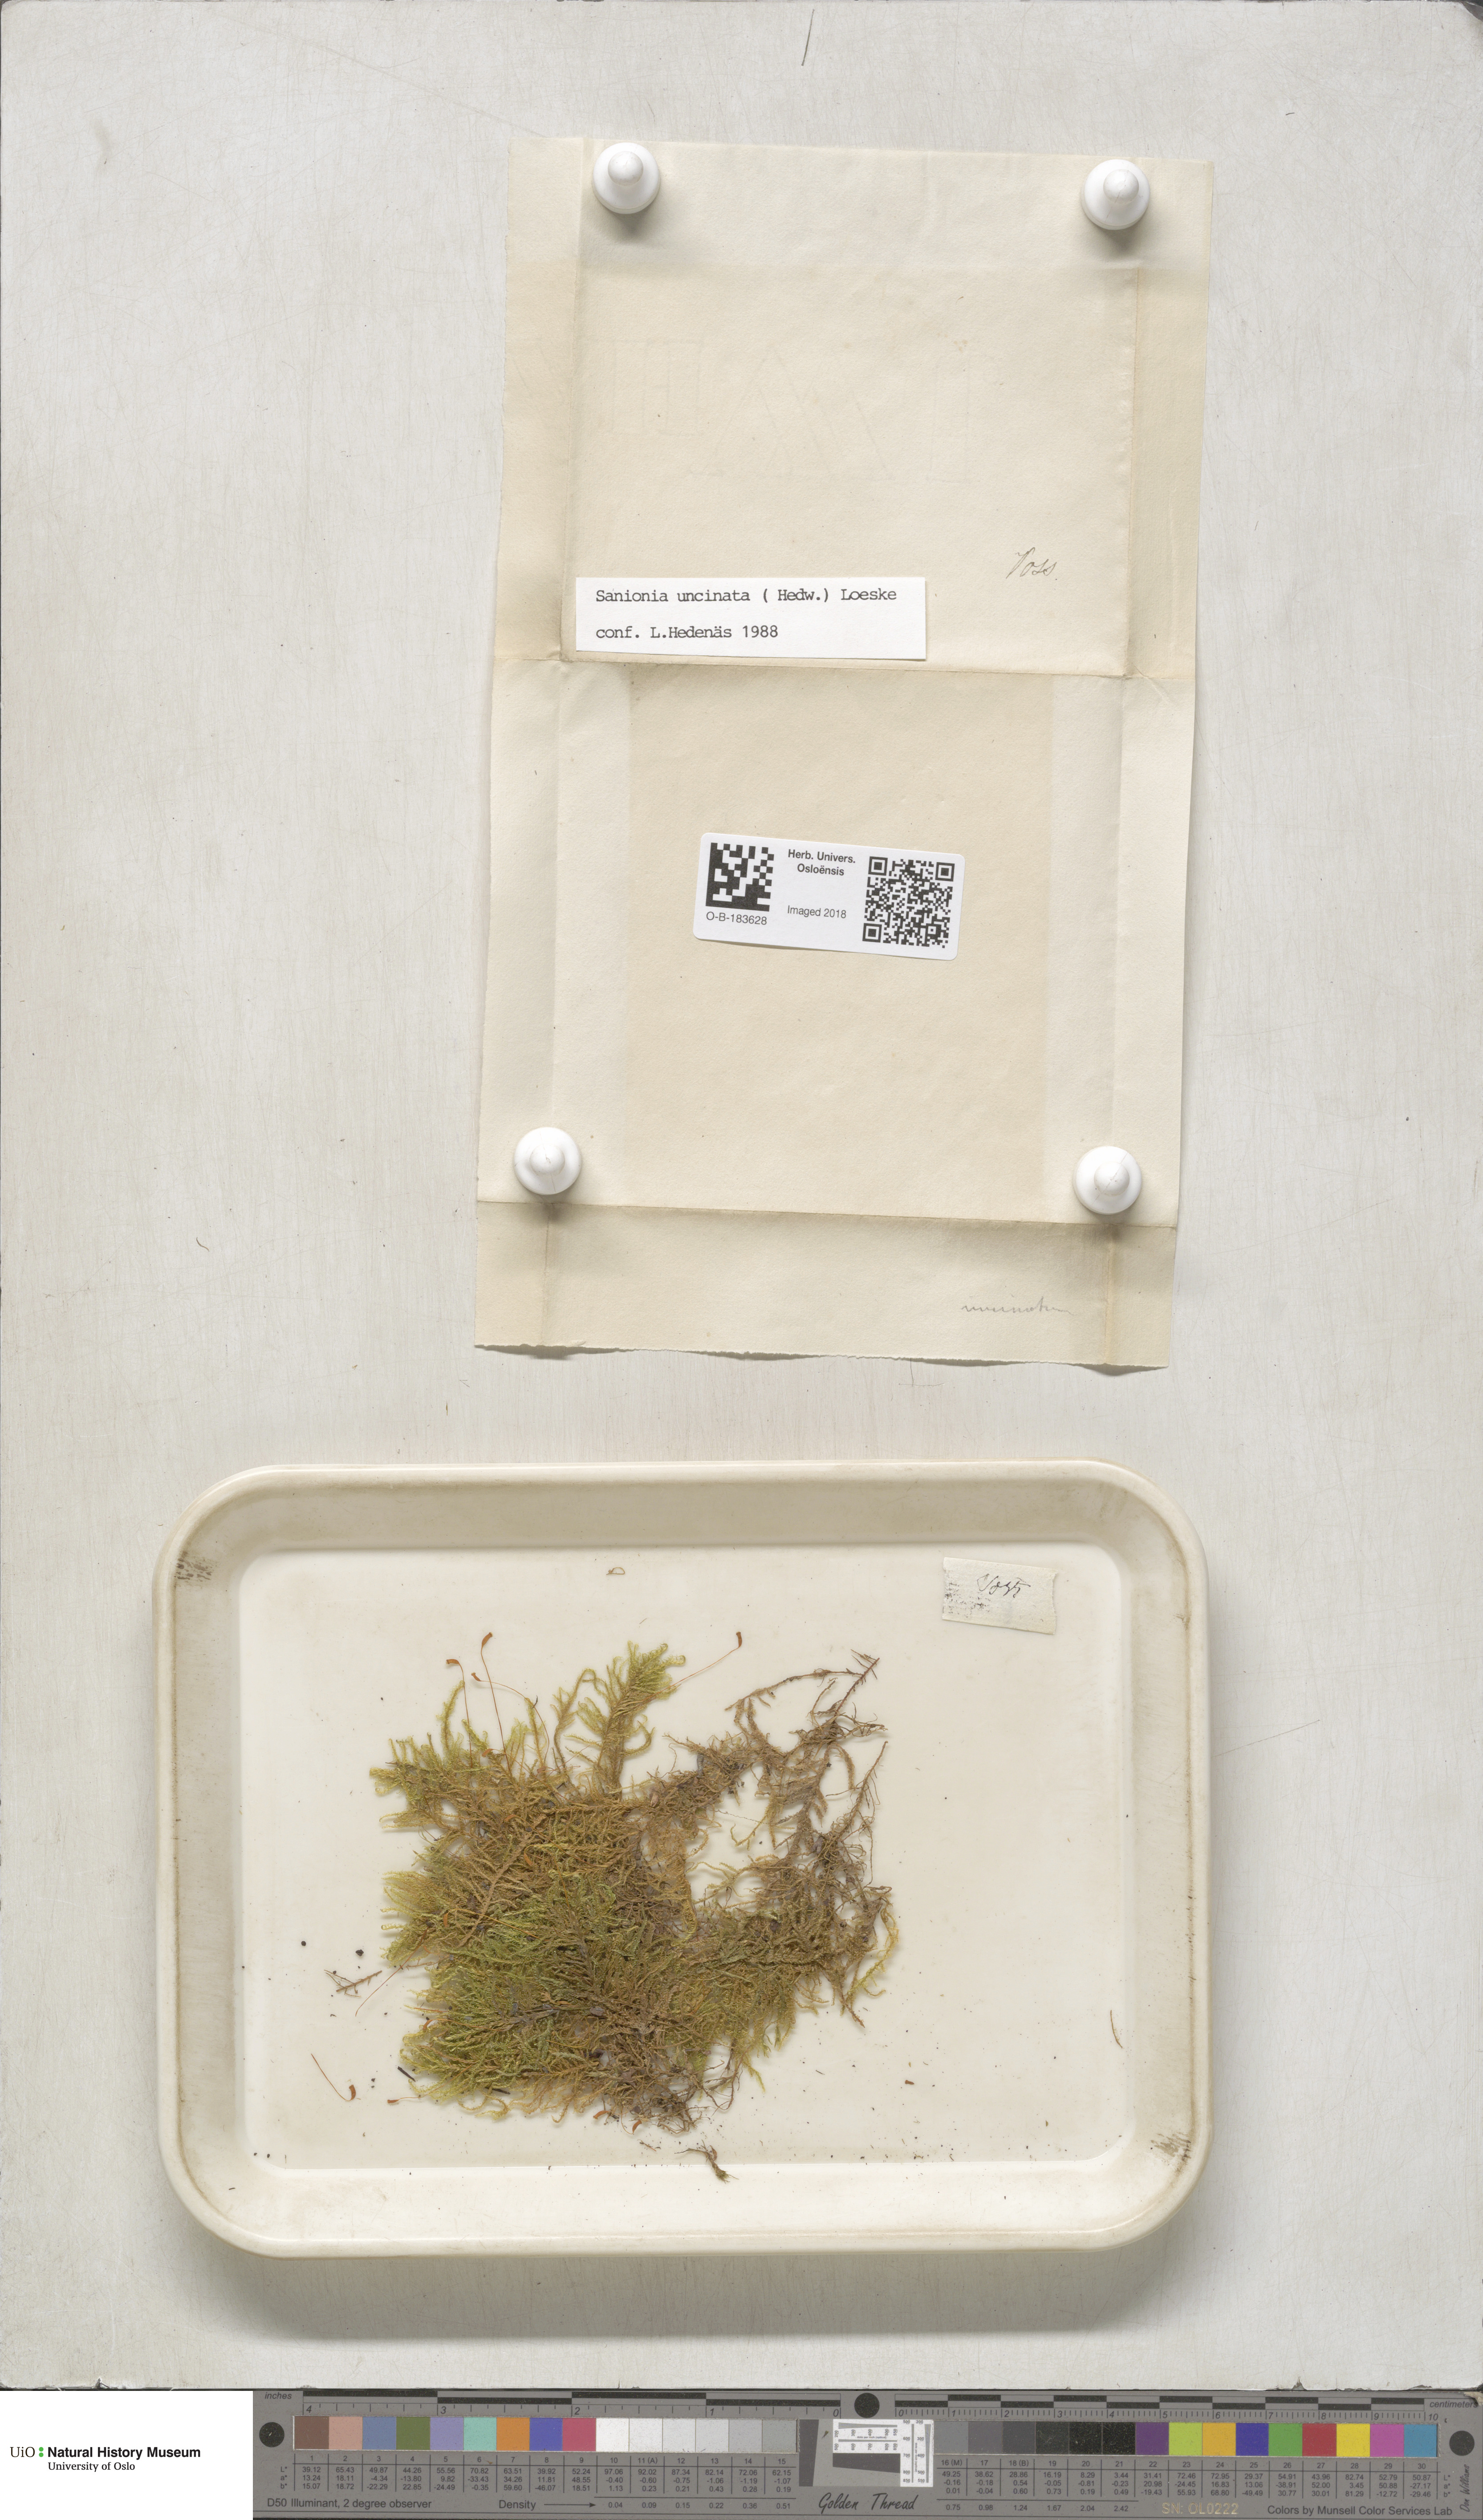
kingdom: Plantae
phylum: Bryophyta
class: Bryopsida
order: Hypnales
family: Scorpidiaceae
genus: Sanionia
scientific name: Sanionia uncinata
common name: Sickle moss
